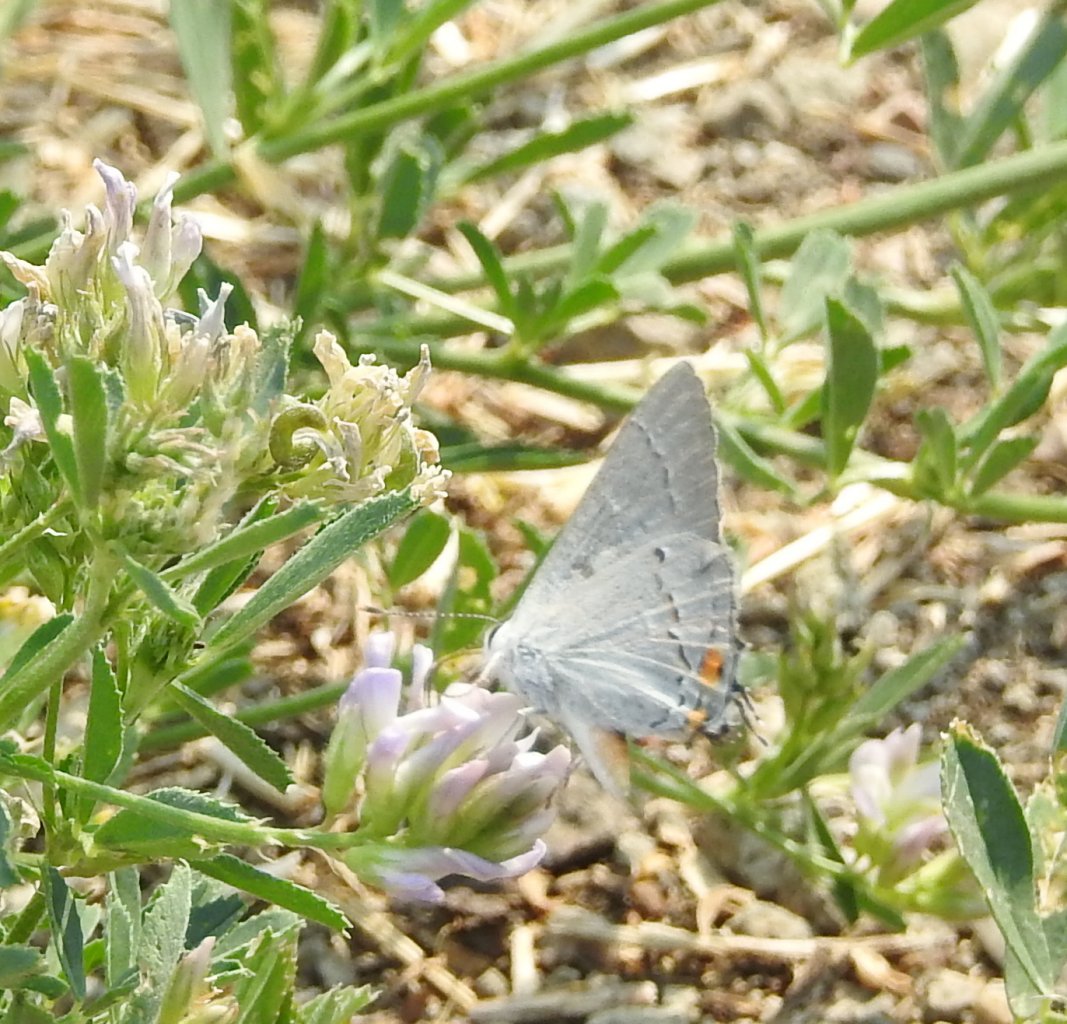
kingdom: Animalia
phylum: Arthropoda
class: Insecta
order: Lepidoptera
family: Lycaenidae
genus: Strymon
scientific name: Strymon melinus
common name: Gray Hairstreak
